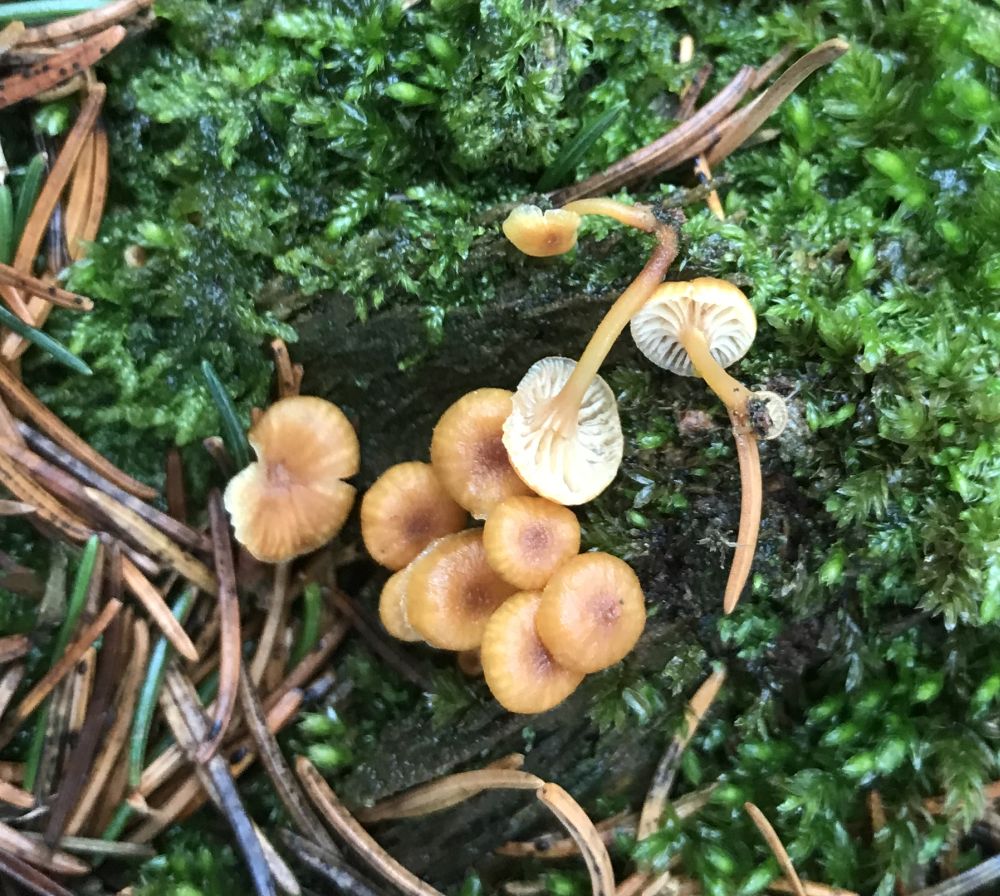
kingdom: Fungi
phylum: Basidiomycota
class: Agaricomycetes
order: Agaricales
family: Mycenaceae
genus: Xeromphalina
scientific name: Xeromphalina campanella
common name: klokke-tørhat
